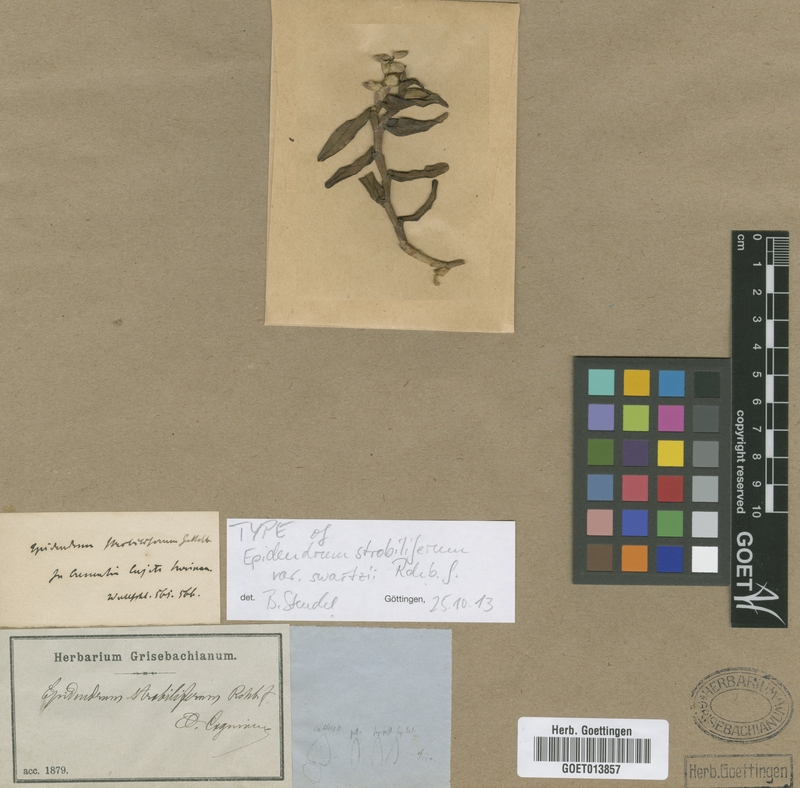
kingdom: Plantae
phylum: Tracheophyta
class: Liliopsida
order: Asparagales
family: Orchidaceae
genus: Epidendrum
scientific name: Epidendrum strobiliferum
